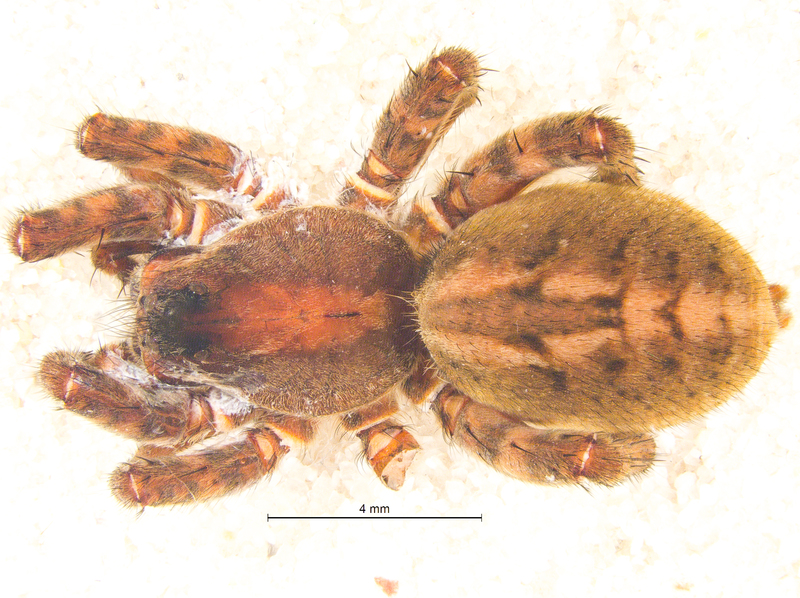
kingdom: Animalia
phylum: Arthropoda
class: Arachnida
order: Araneae
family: Lycosidae
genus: Alopecosa
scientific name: Alopecosa barbipes
